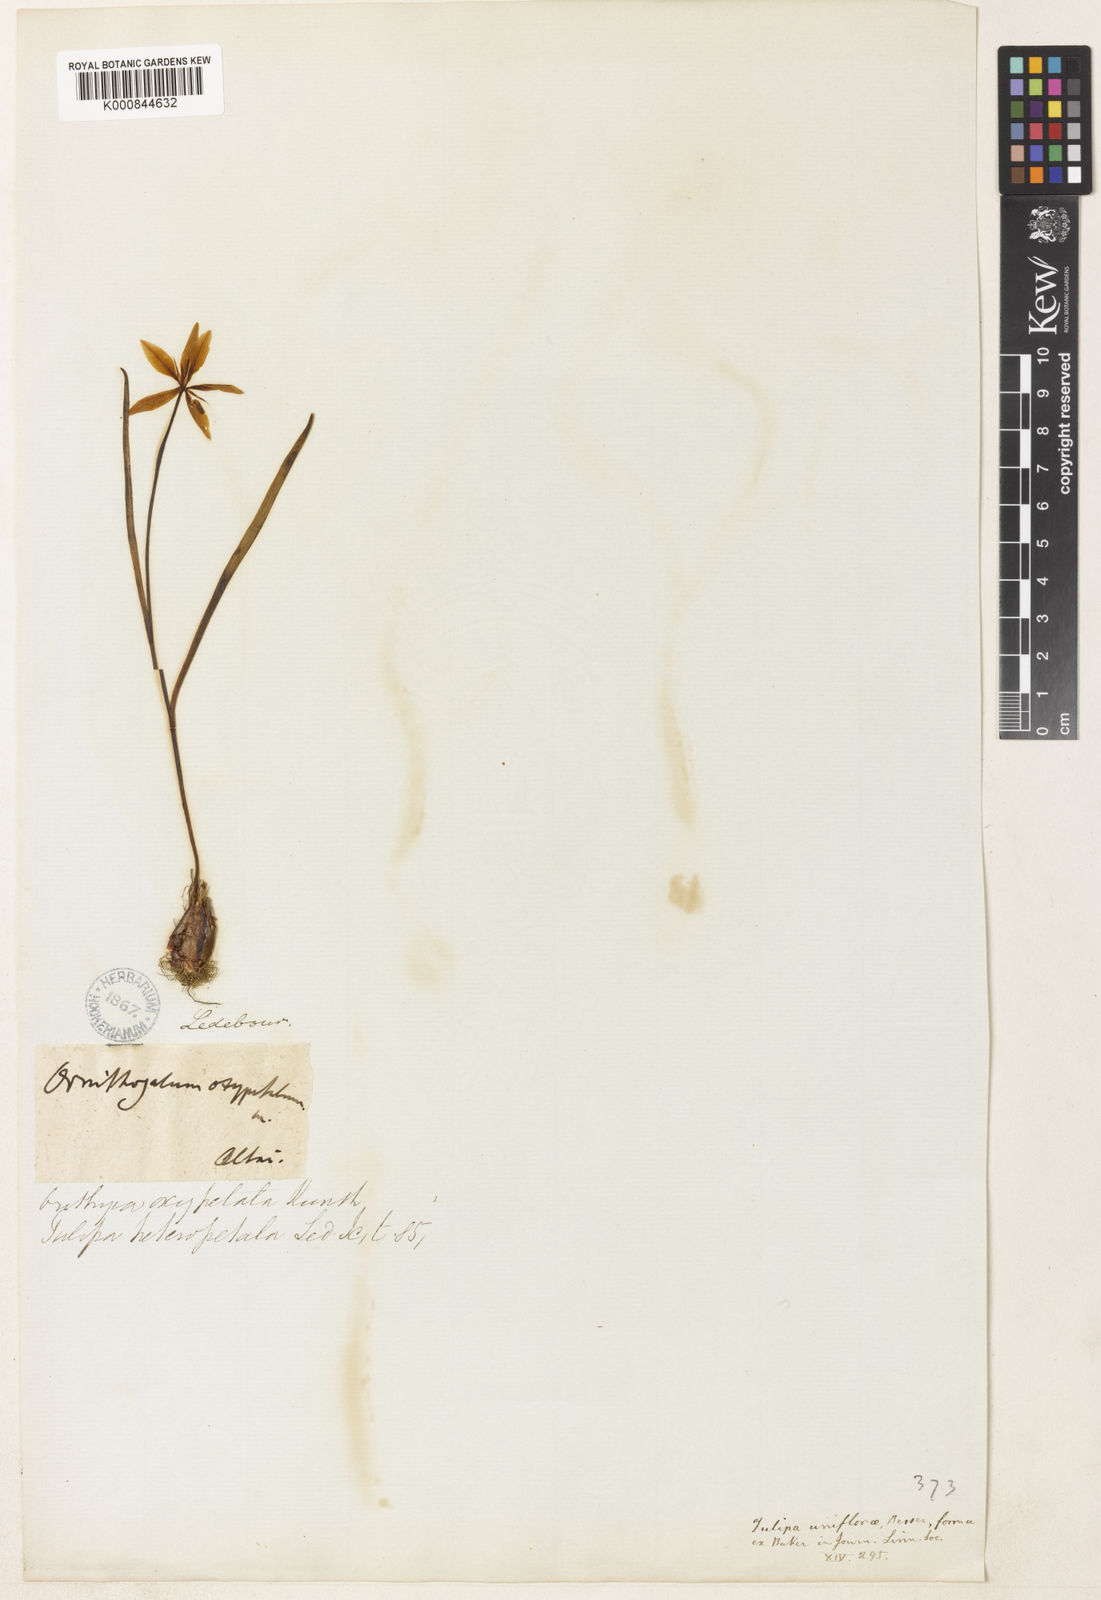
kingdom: Plantae
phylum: Tracheophyta
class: Liliopsida
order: Liliales
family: Liliaceae
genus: Tulipa
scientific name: Tulipa uniflora
